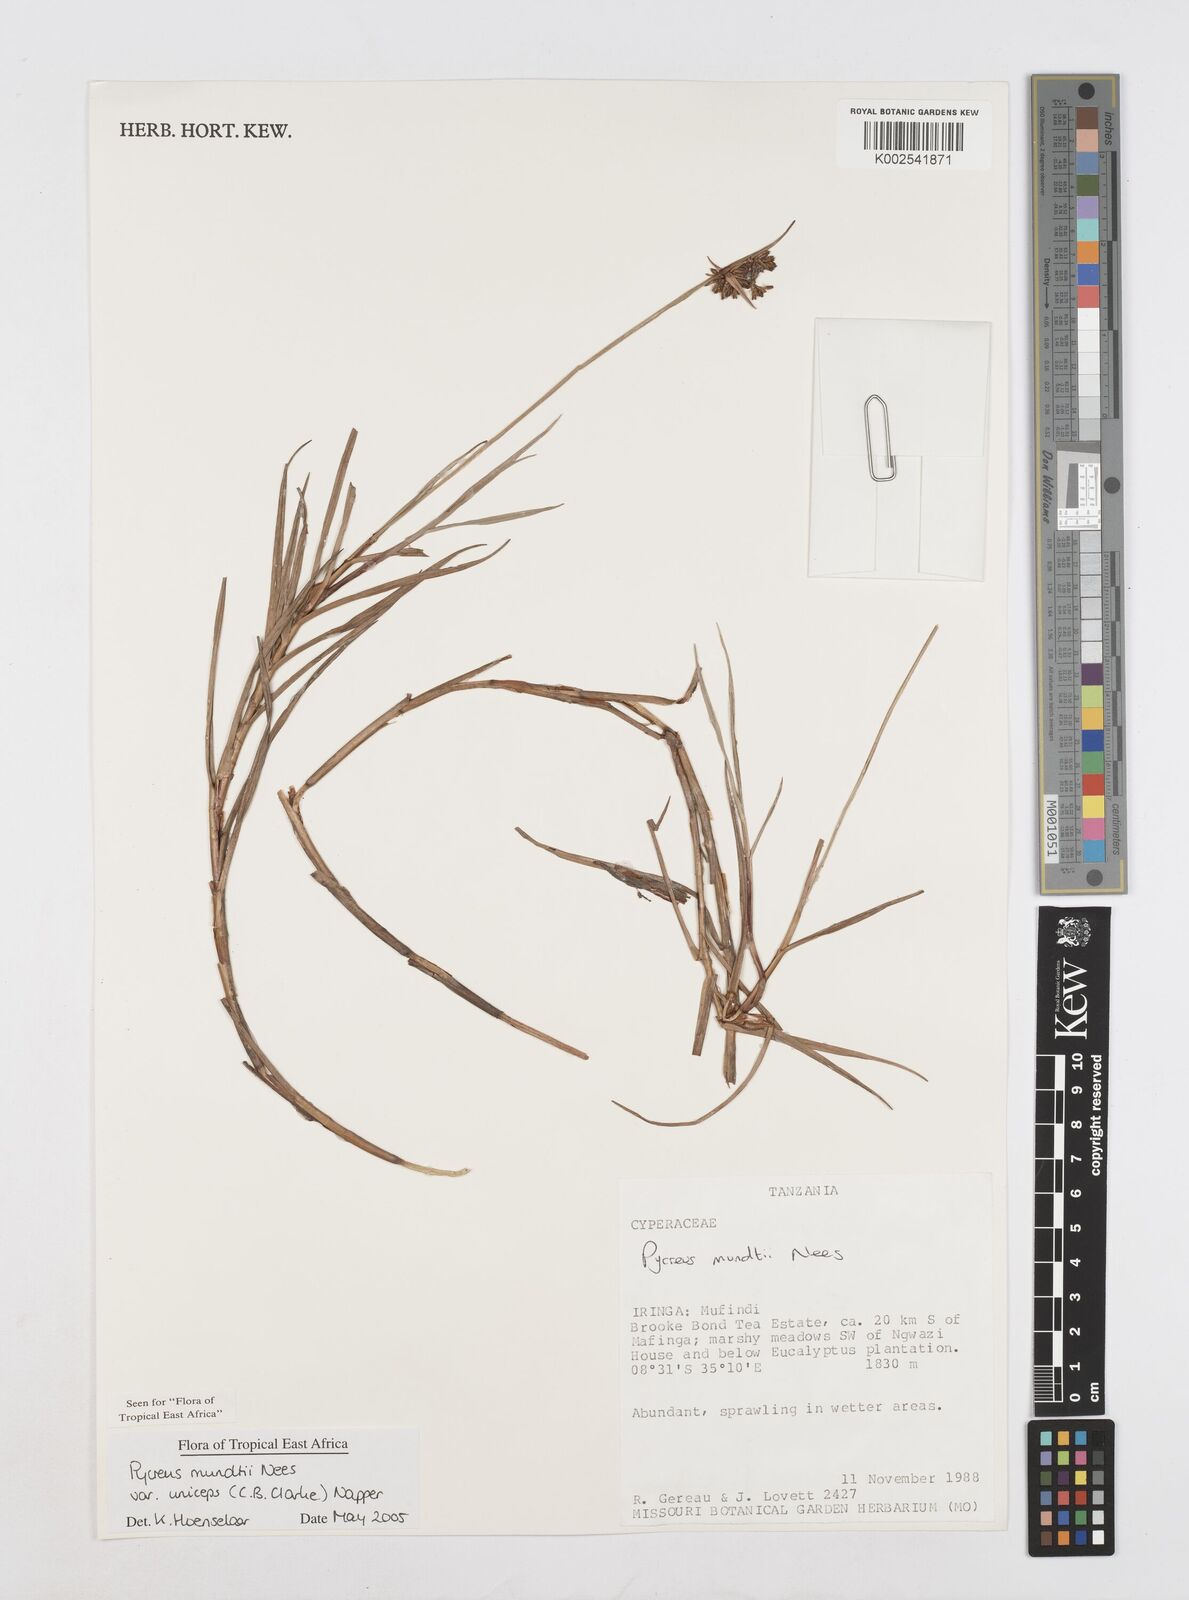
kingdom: Plantae
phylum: Tracheophyta
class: Liliopsida
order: Poales
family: Cyperaceae
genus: Cyperus
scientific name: Cyperus mundii
